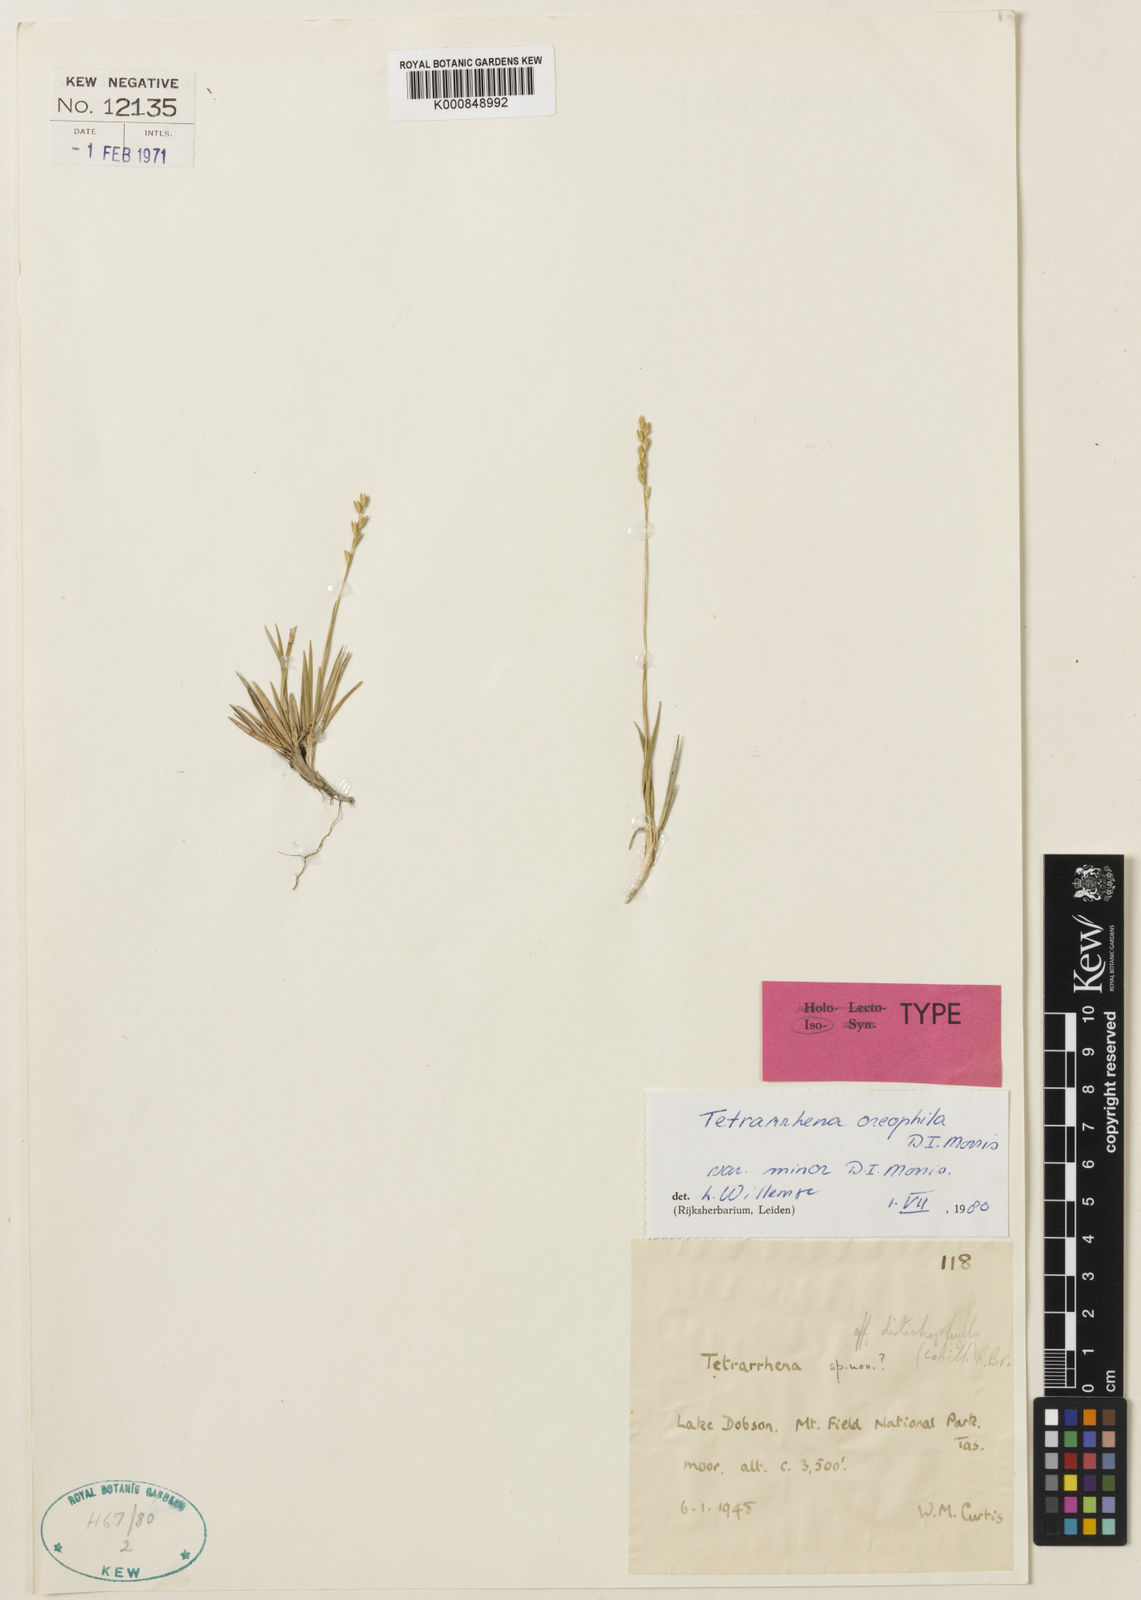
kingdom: Plantae
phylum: Tracheophyta
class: Liliopsida
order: Poales
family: Poaceae
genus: Tetrarrhena
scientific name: Tetrarrhena oreophila
